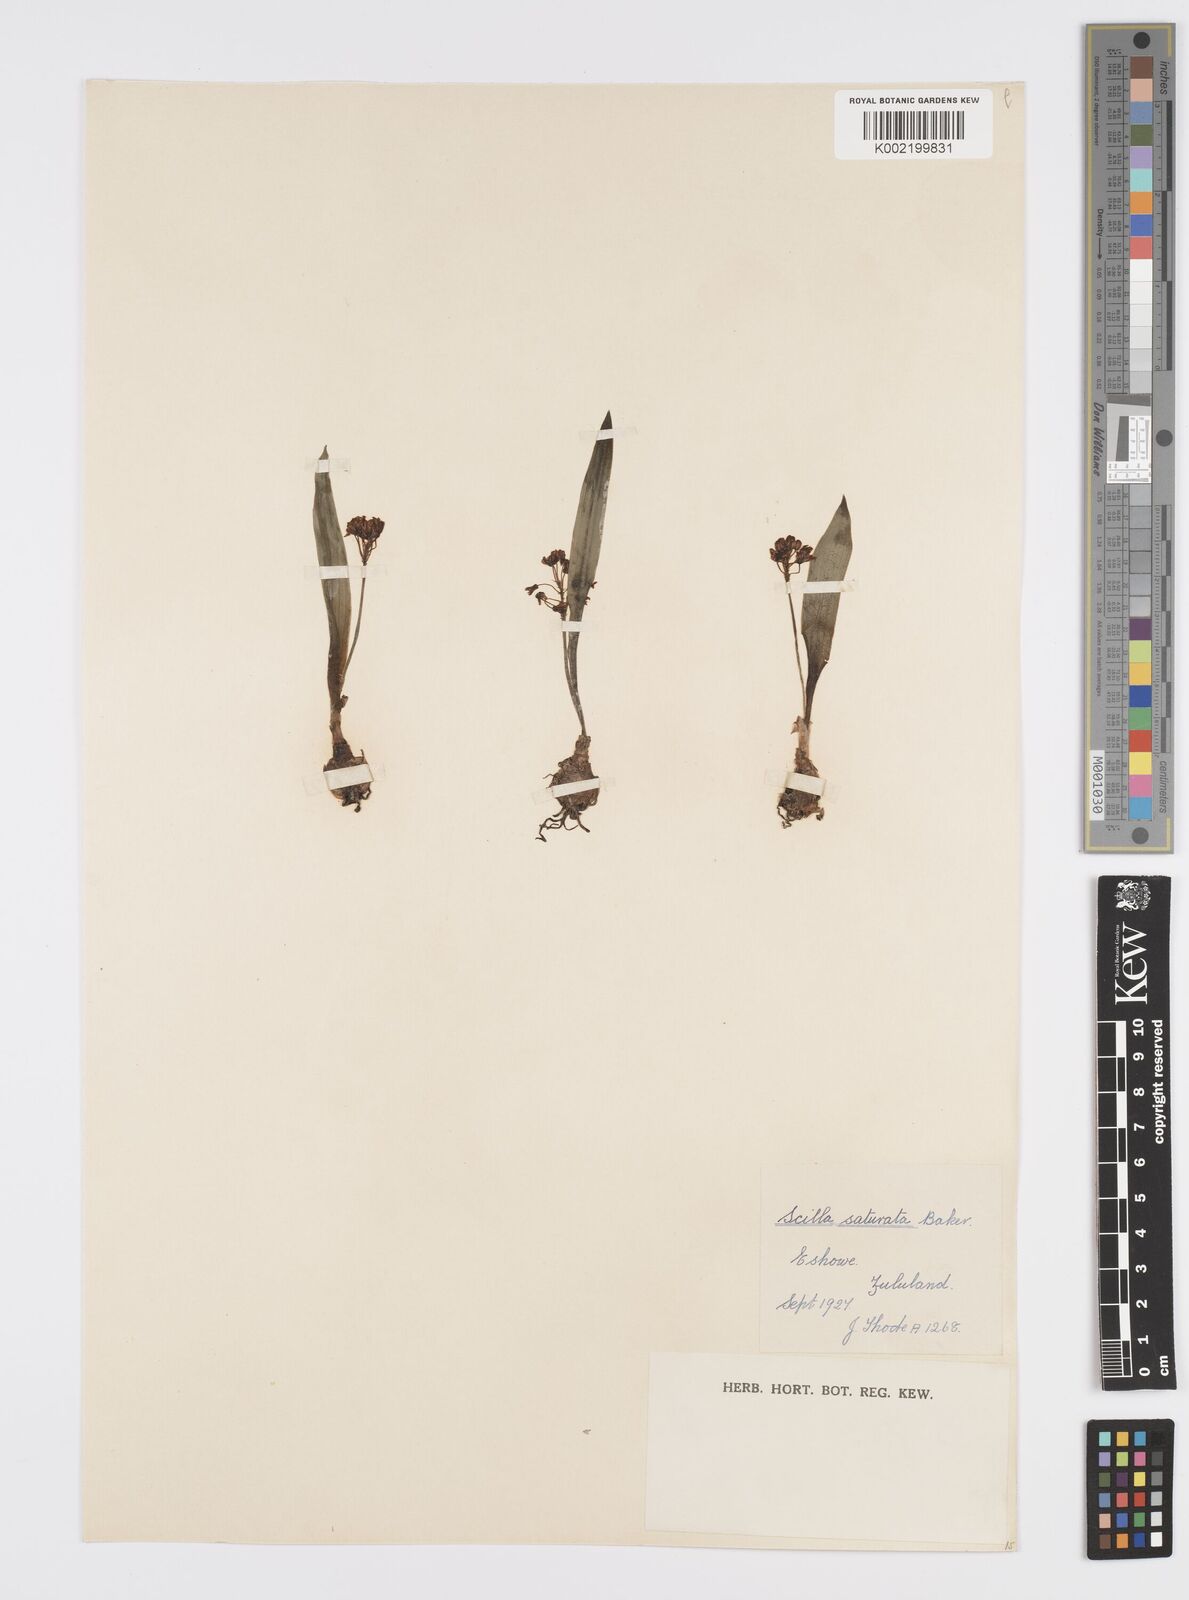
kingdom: Plantae
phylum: Tracheophyta
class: Liliopsida
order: Asparagales
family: Asparagaceae
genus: Ledebouria
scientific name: Ledebouria cooperi
